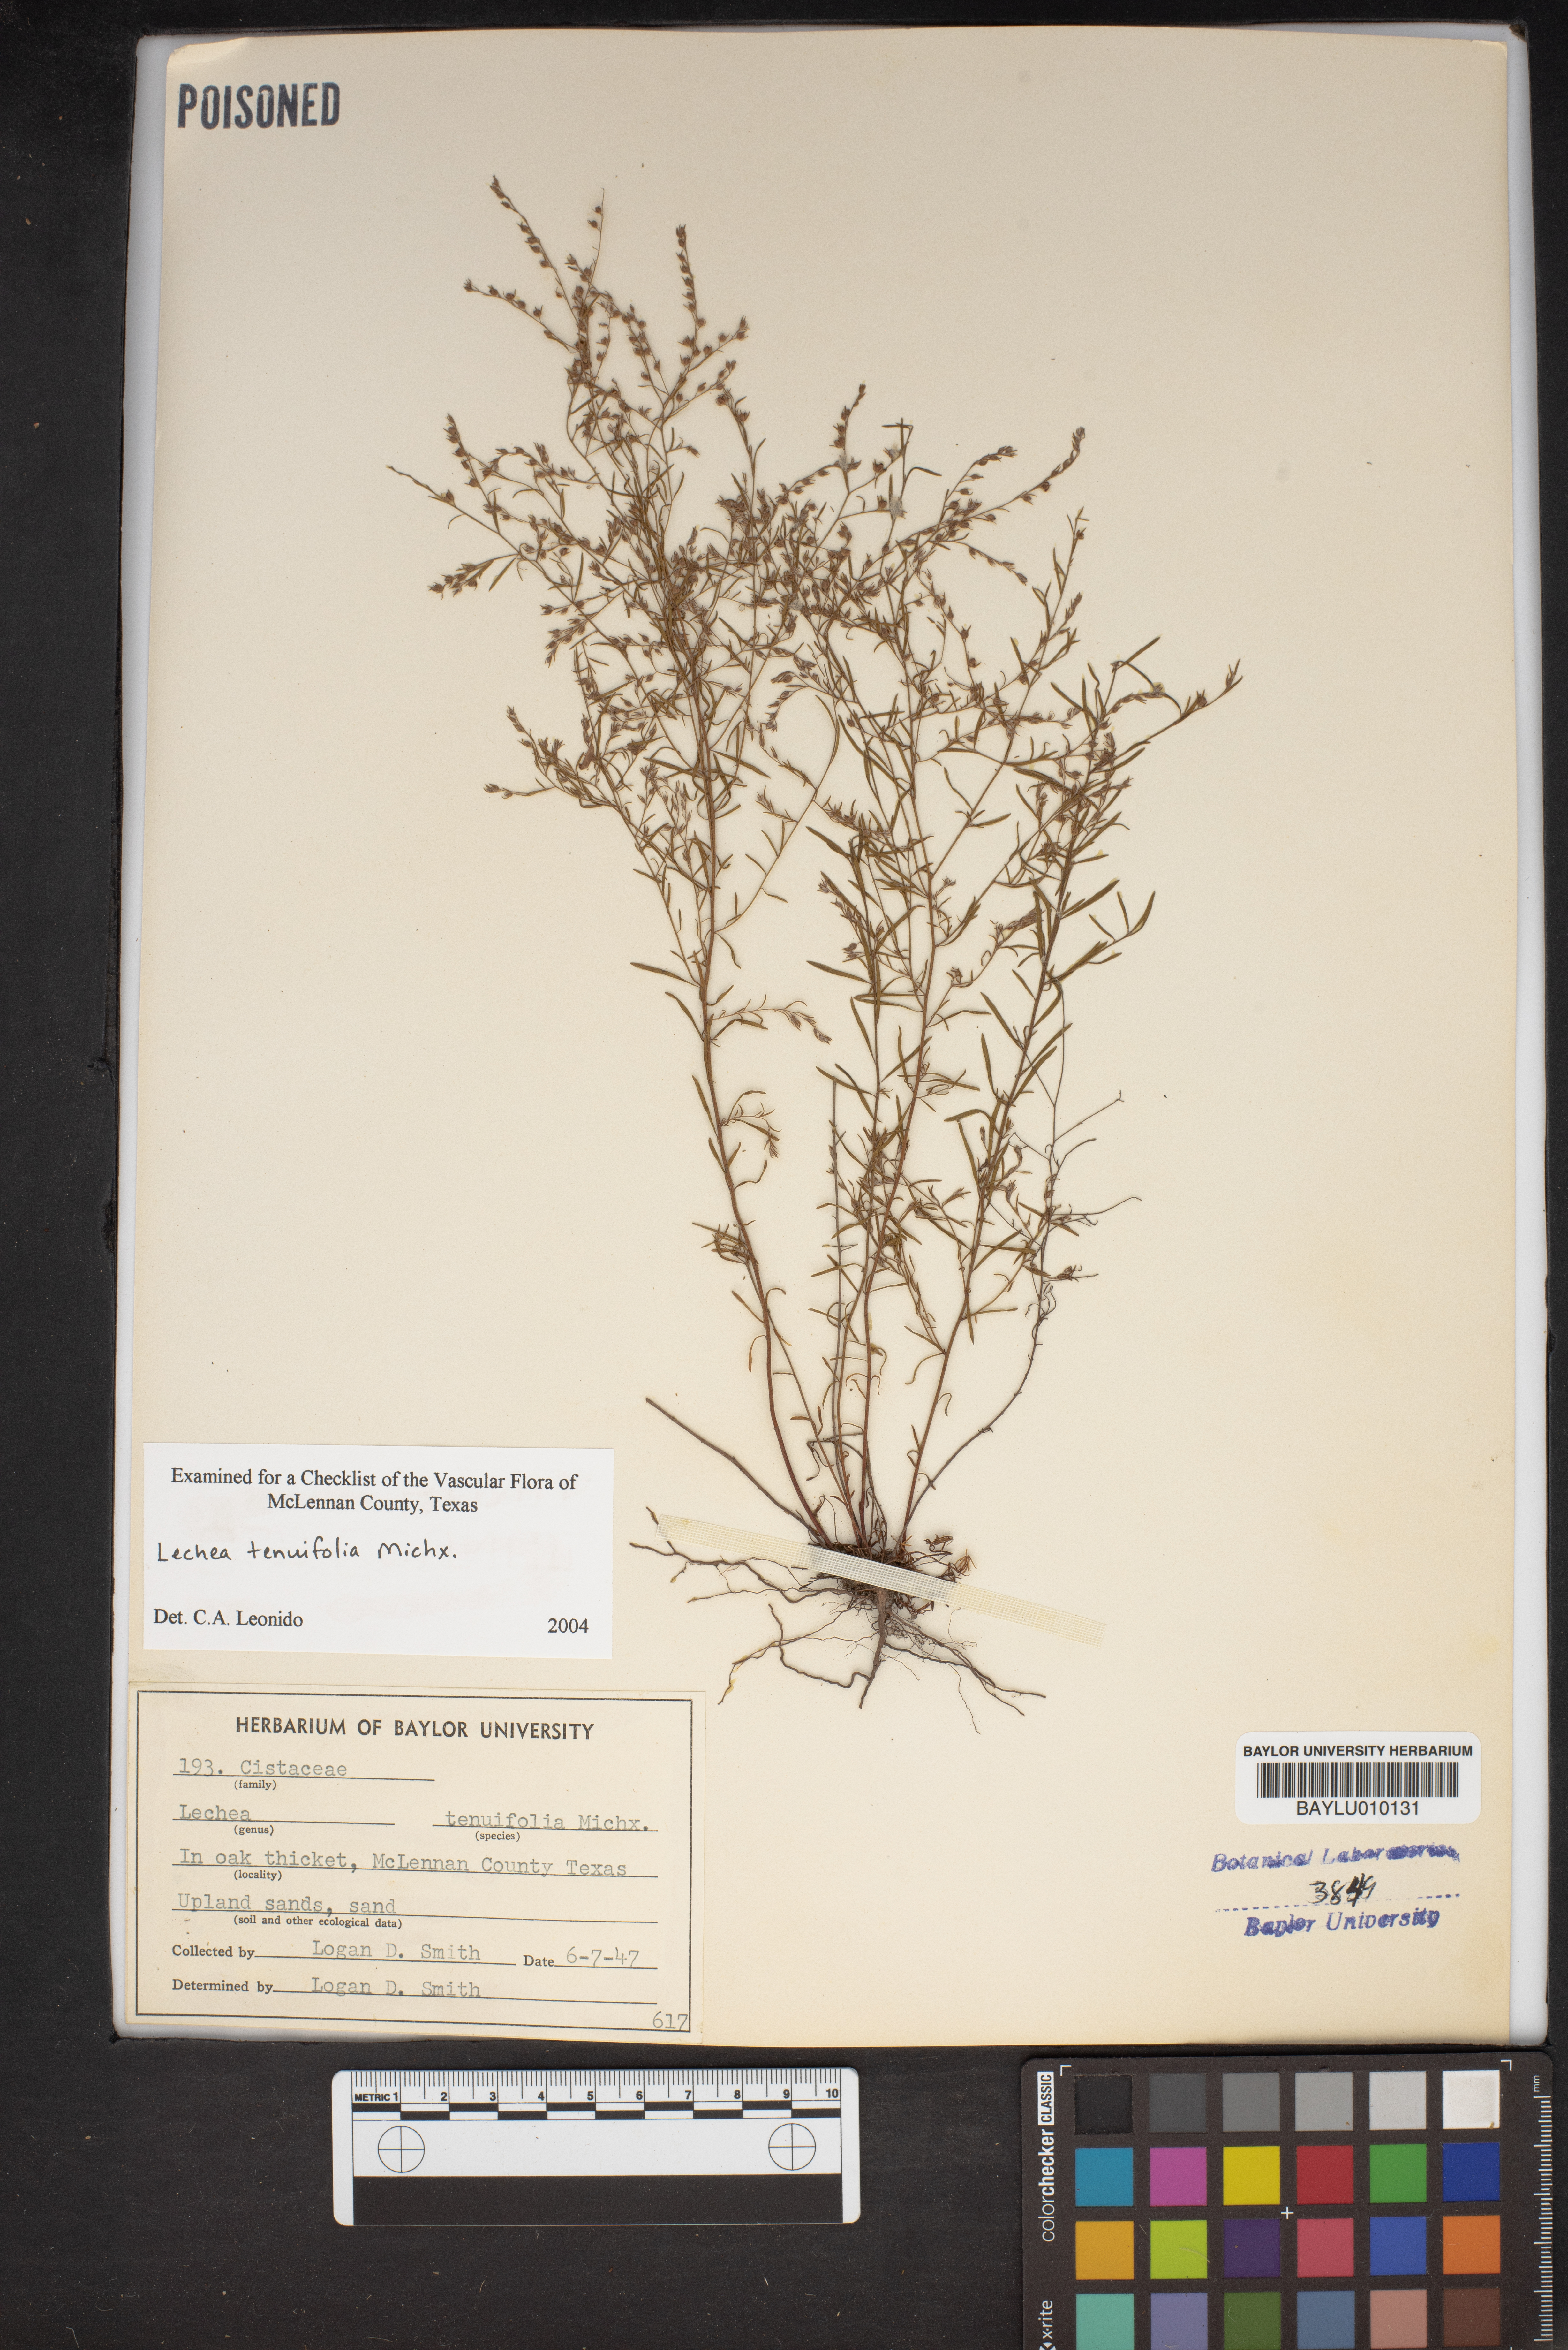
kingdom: Plantae
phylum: Tracheophyta
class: Magnoliopsida
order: Malvales
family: Cistaceae
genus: Lechea
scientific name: Lechea tenuifolia
